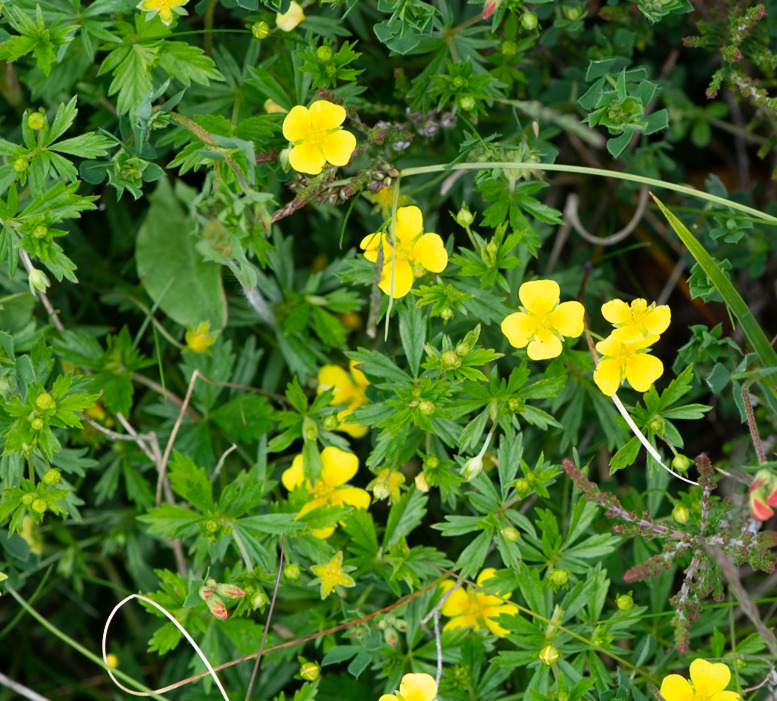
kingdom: Plantae
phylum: Tracheophyta
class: Magnoliopsida
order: Rosales
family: Rosaceae
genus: Potentilla
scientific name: Potentilla erecta
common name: Tormentil
